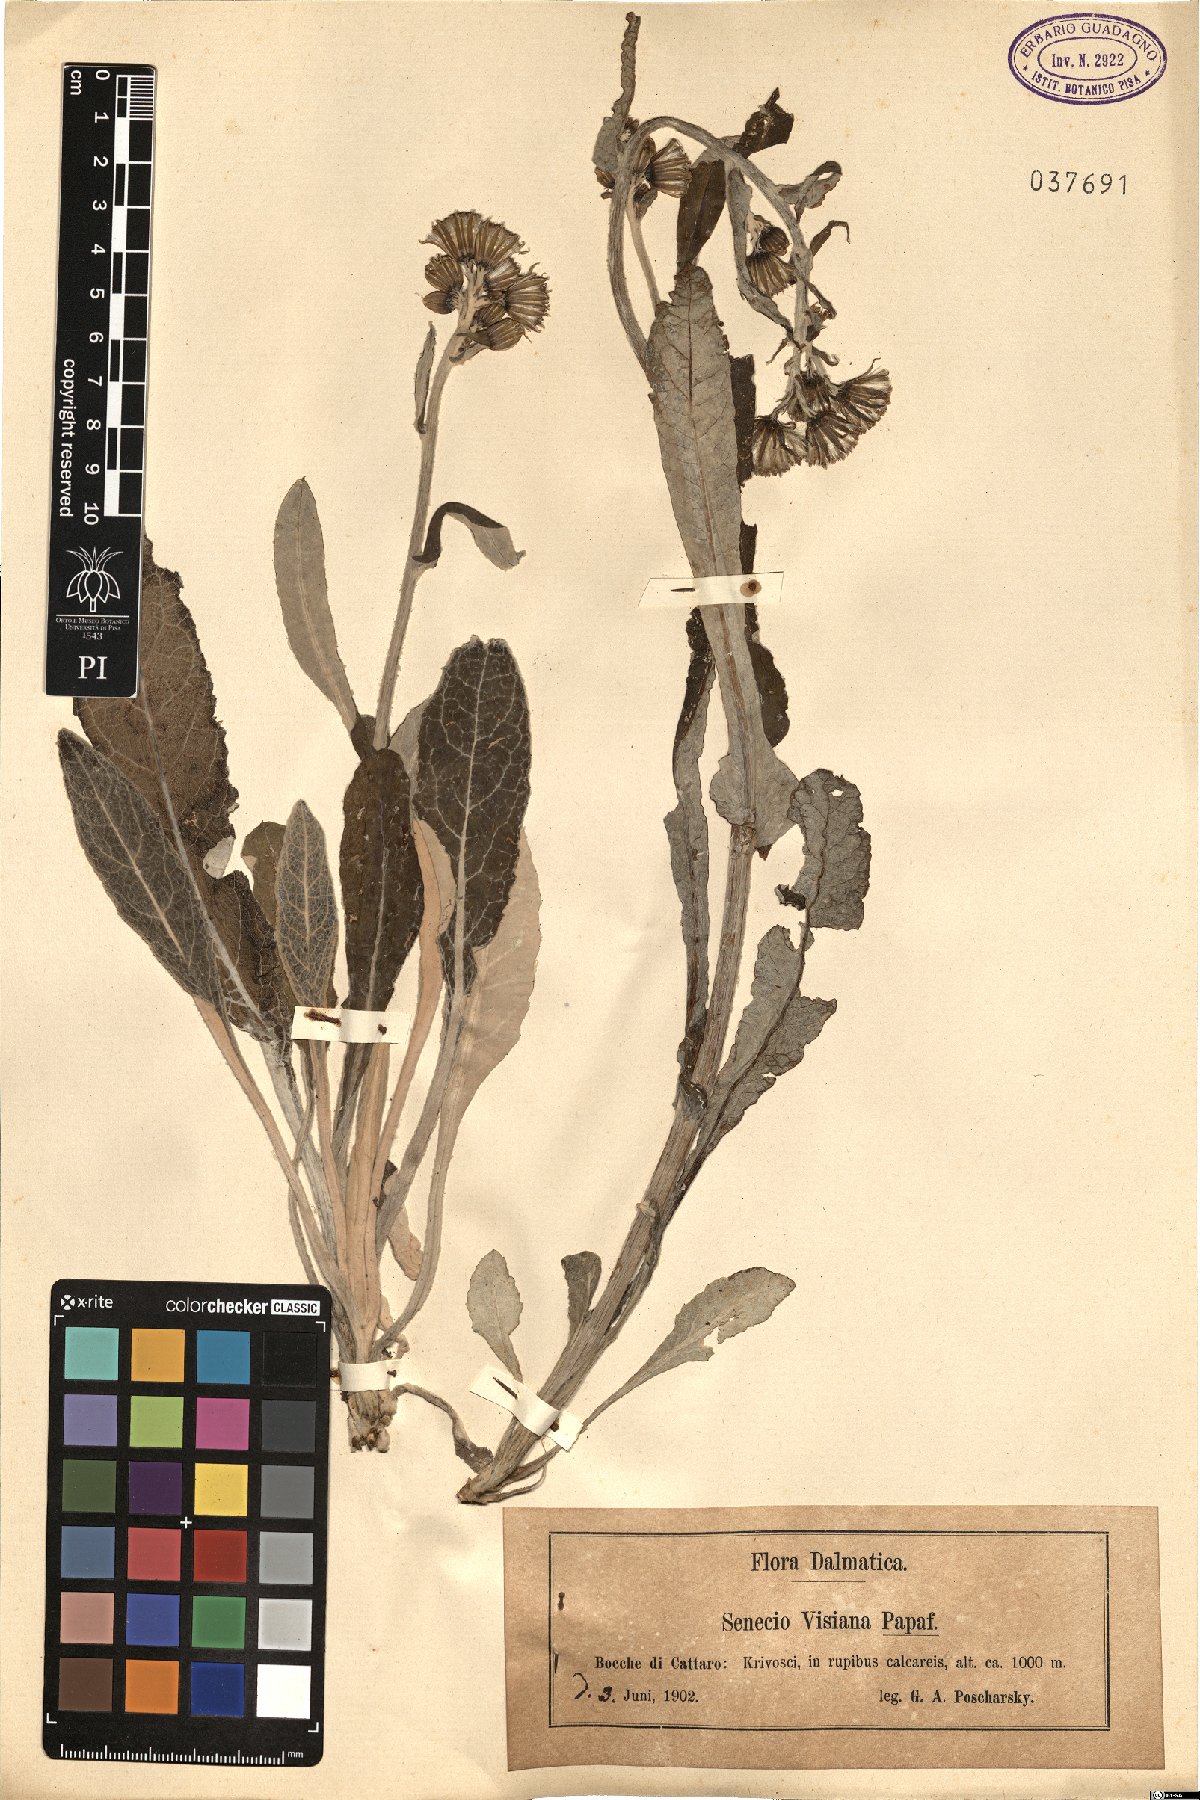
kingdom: Plantae
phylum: Tracheophyta
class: Magnoliopsida
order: Asterales
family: Asteraceae
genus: Senecio
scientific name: Senecio thapsoides
